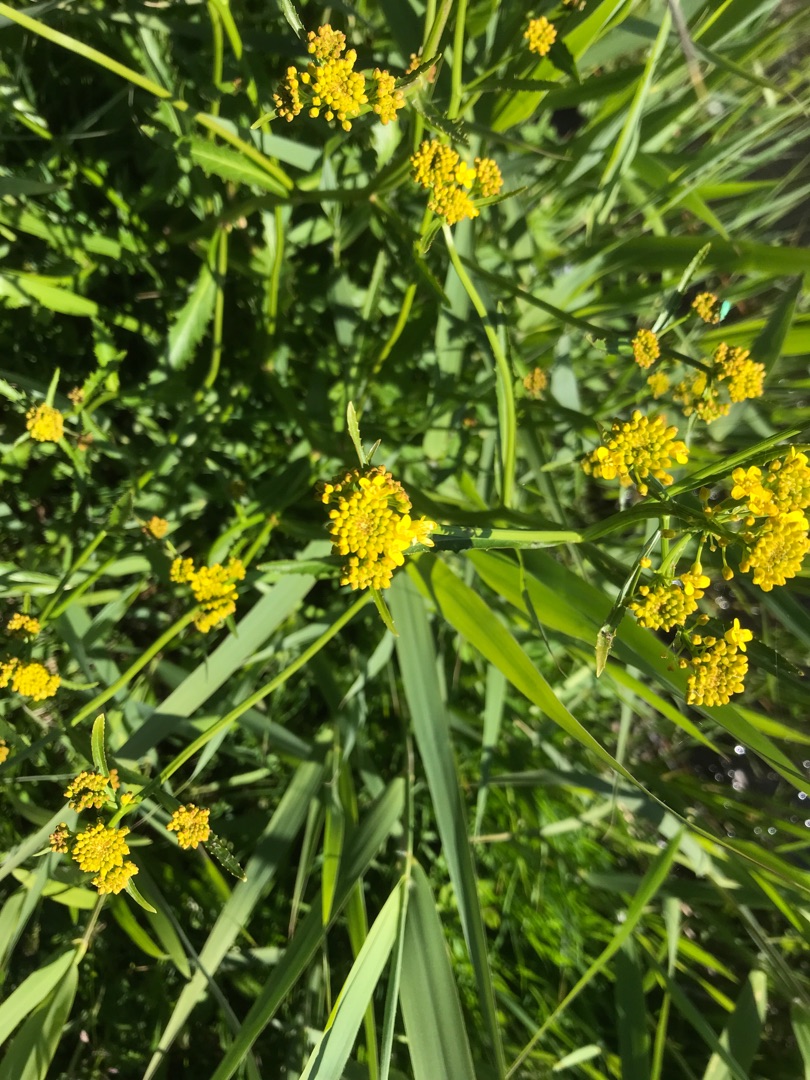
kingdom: Plantae
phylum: Tracheophyta
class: Magnoliopsida
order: Brassicales
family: Brassicaceae
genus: Rorippa
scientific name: Rorippa amphibia
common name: Vandpeberrod
